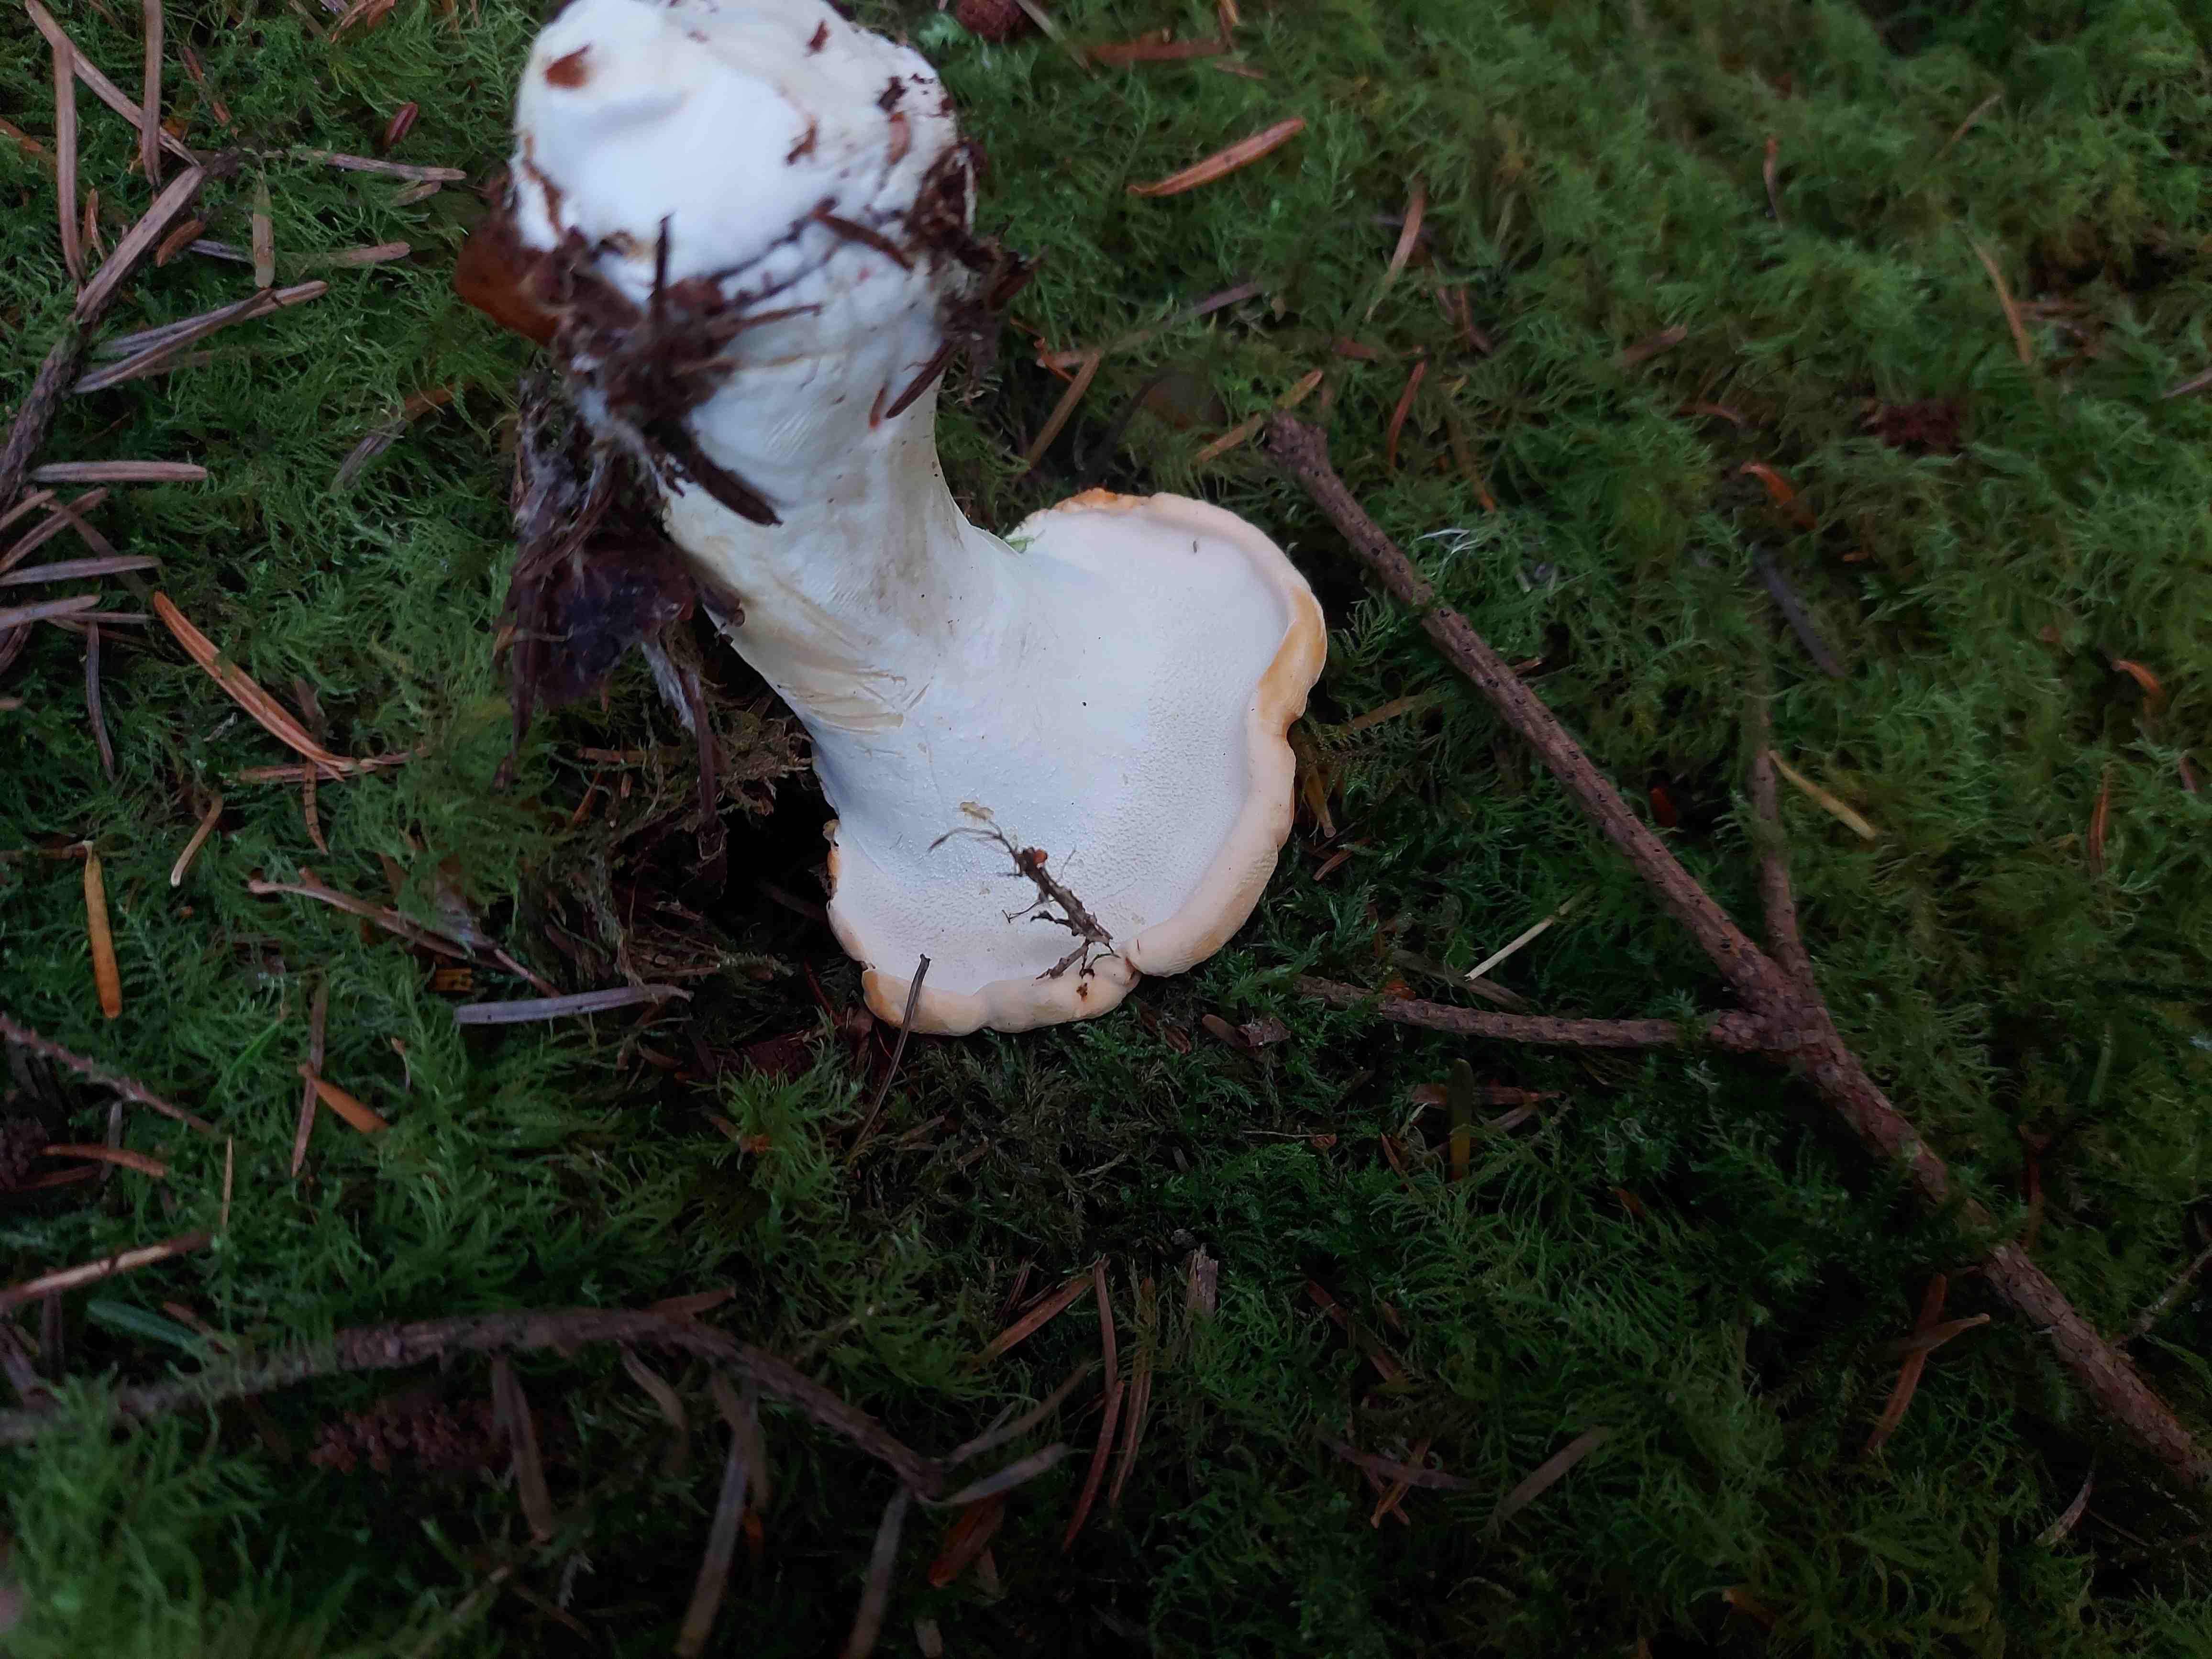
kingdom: Fungi
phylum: Basidiomycota
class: Agaricomycetes
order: Cantharellales
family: Hydnaceae
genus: Hydnum
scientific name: Hydnum repandum
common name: almindelig pigsvamp
